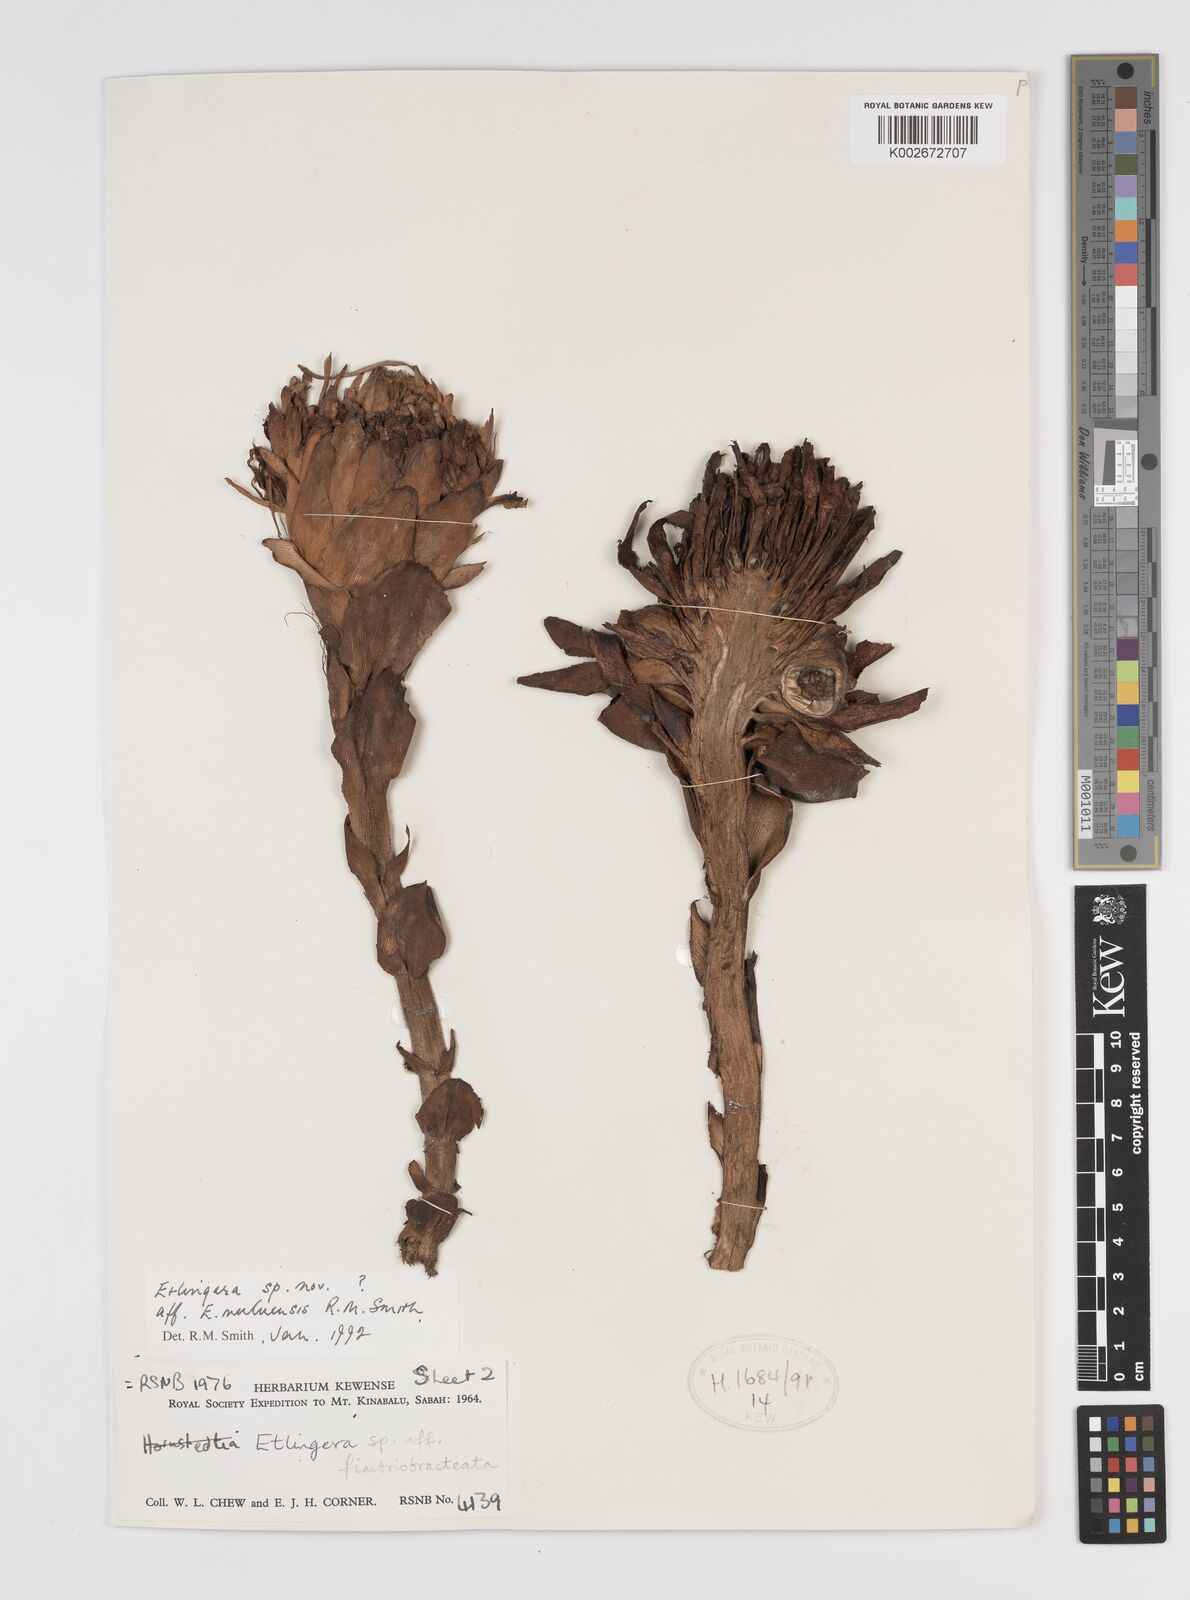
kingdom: Plantae
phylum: Tracheophyta
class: Liliopsida
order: Zingiberales
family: Zingiberaceae
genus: Etlingera
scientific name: Etlingera pubescens
